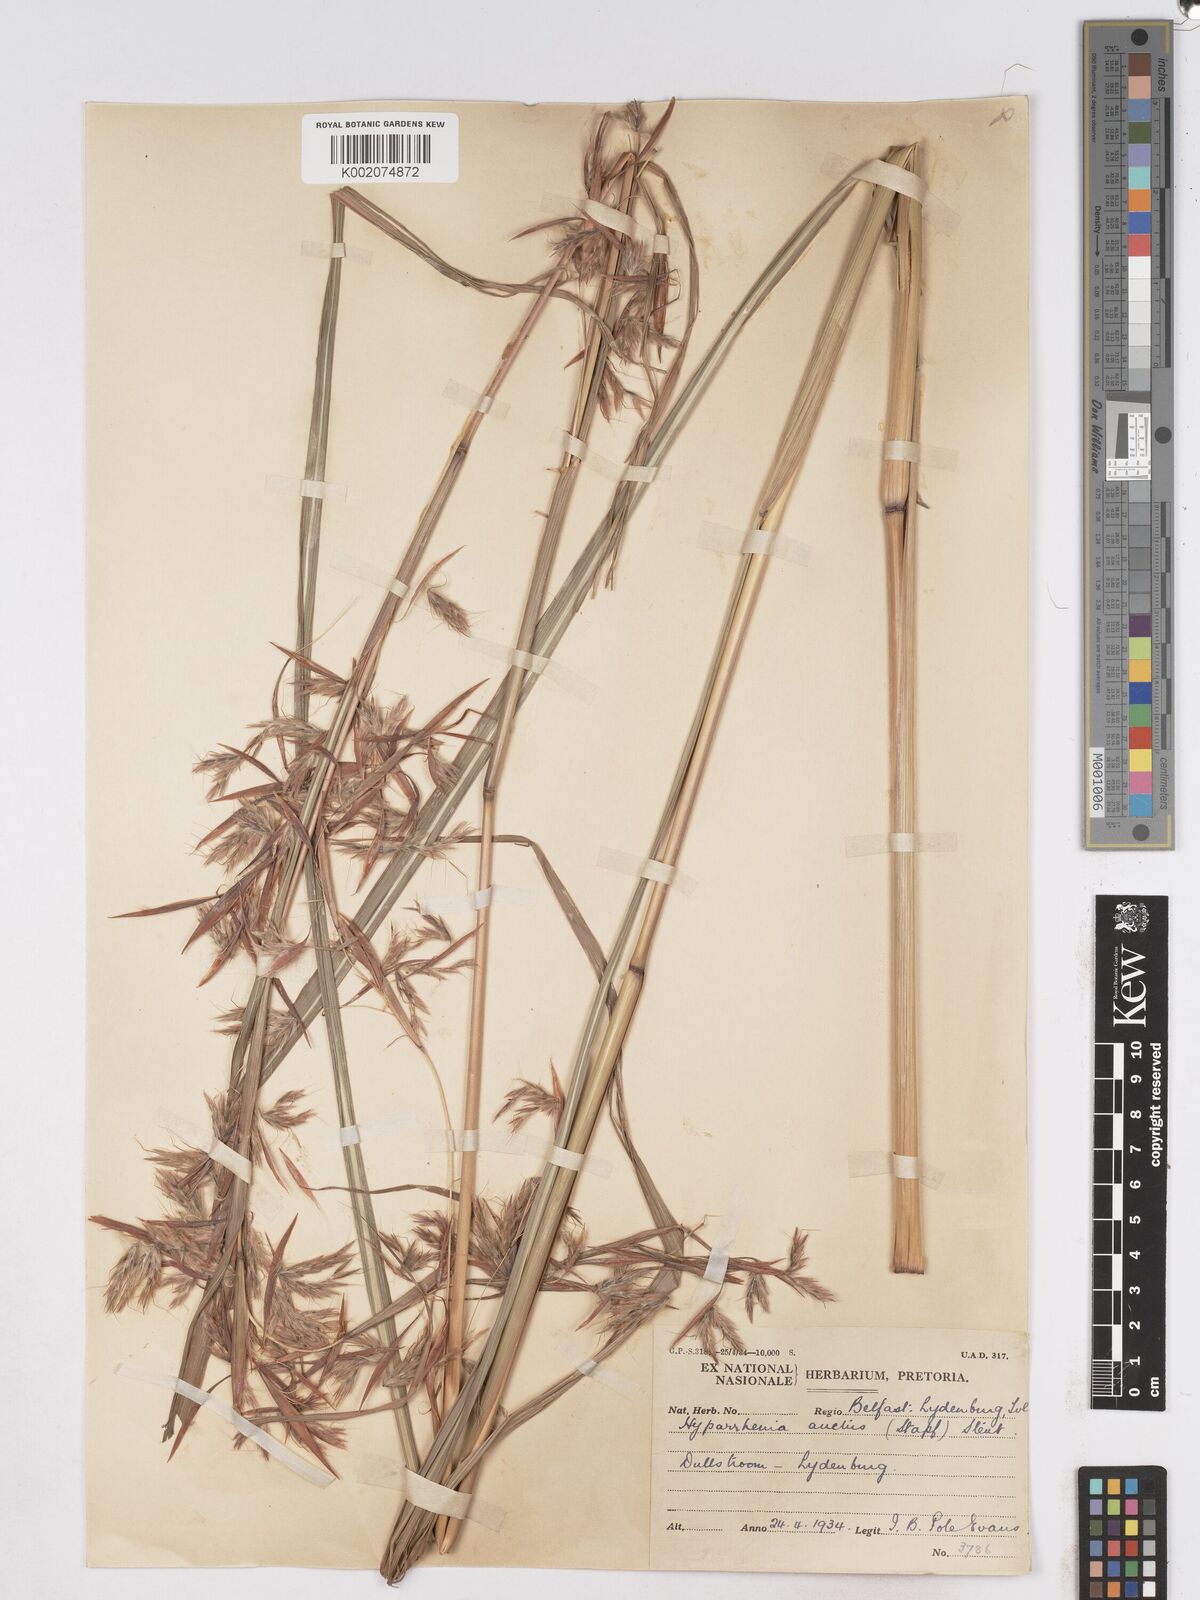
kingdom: Plantae
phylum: Tracheophyta
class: Liliopsida
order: Poales
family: Poaceae
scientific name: Poaceae
